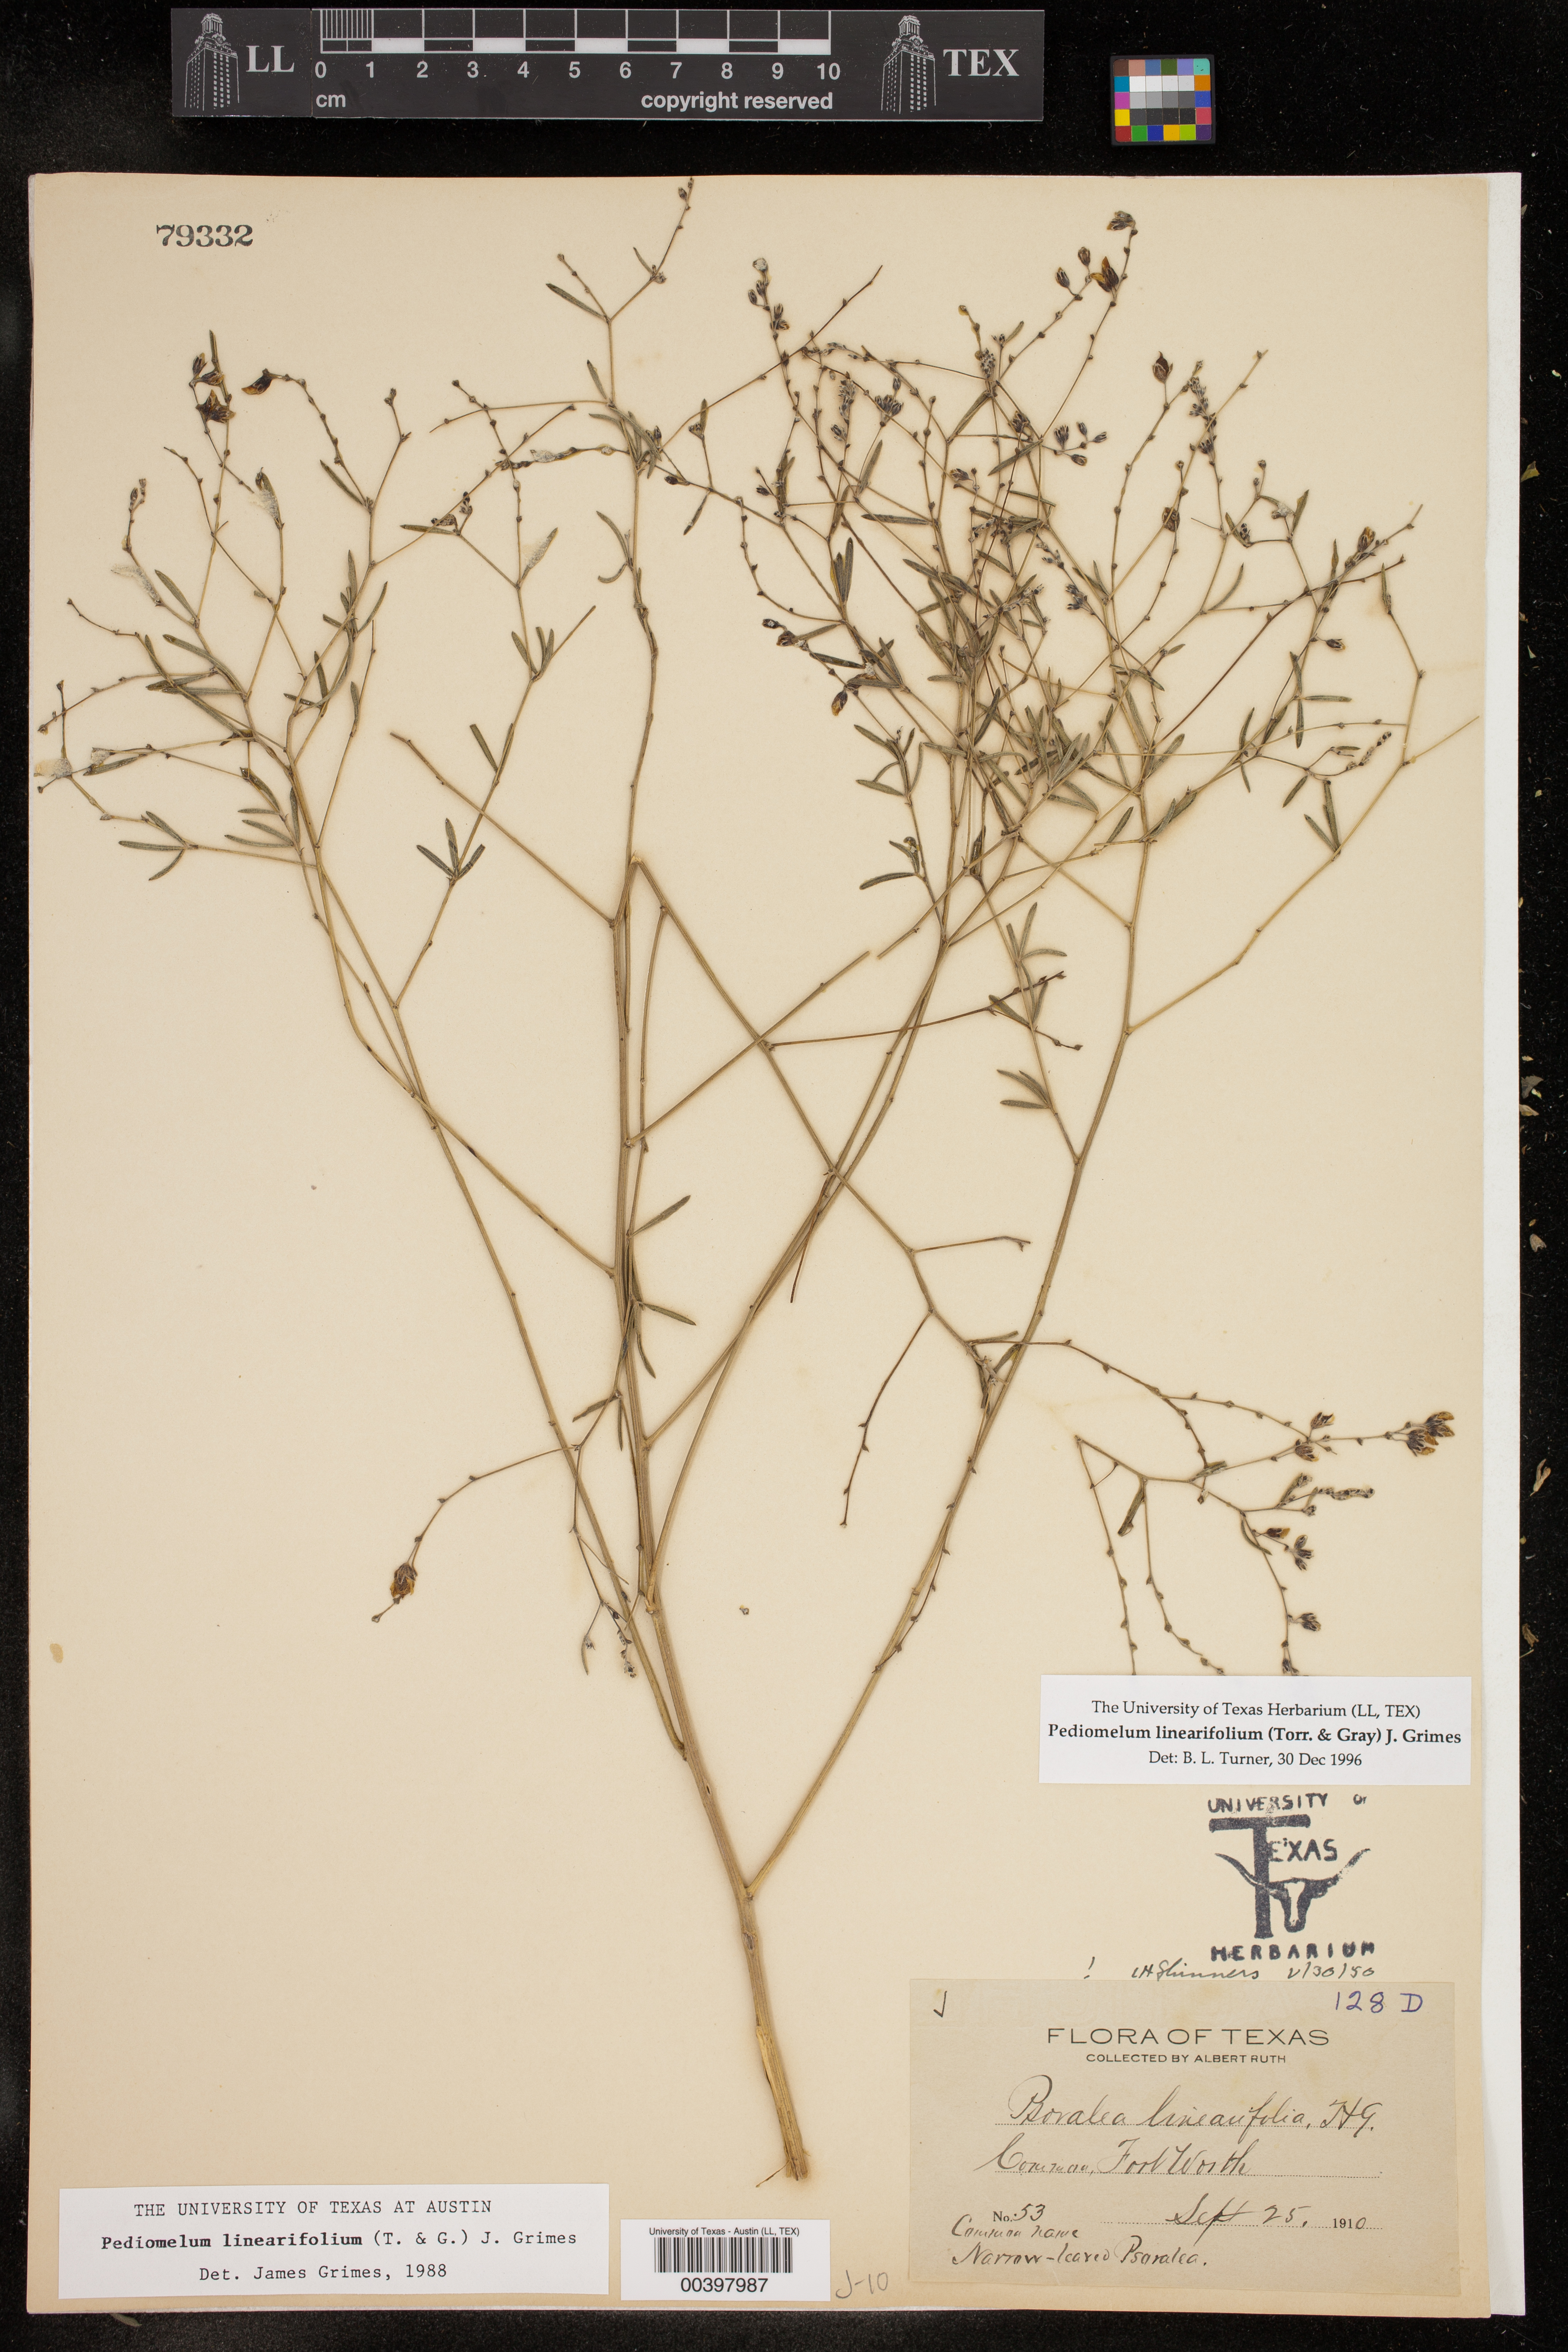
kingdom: Plantae
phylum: Tracheophyta
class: Magnoliopsida
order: Fabales
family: Fabaceae
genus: Pediomelum
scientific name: Pediomelum linearifolium
